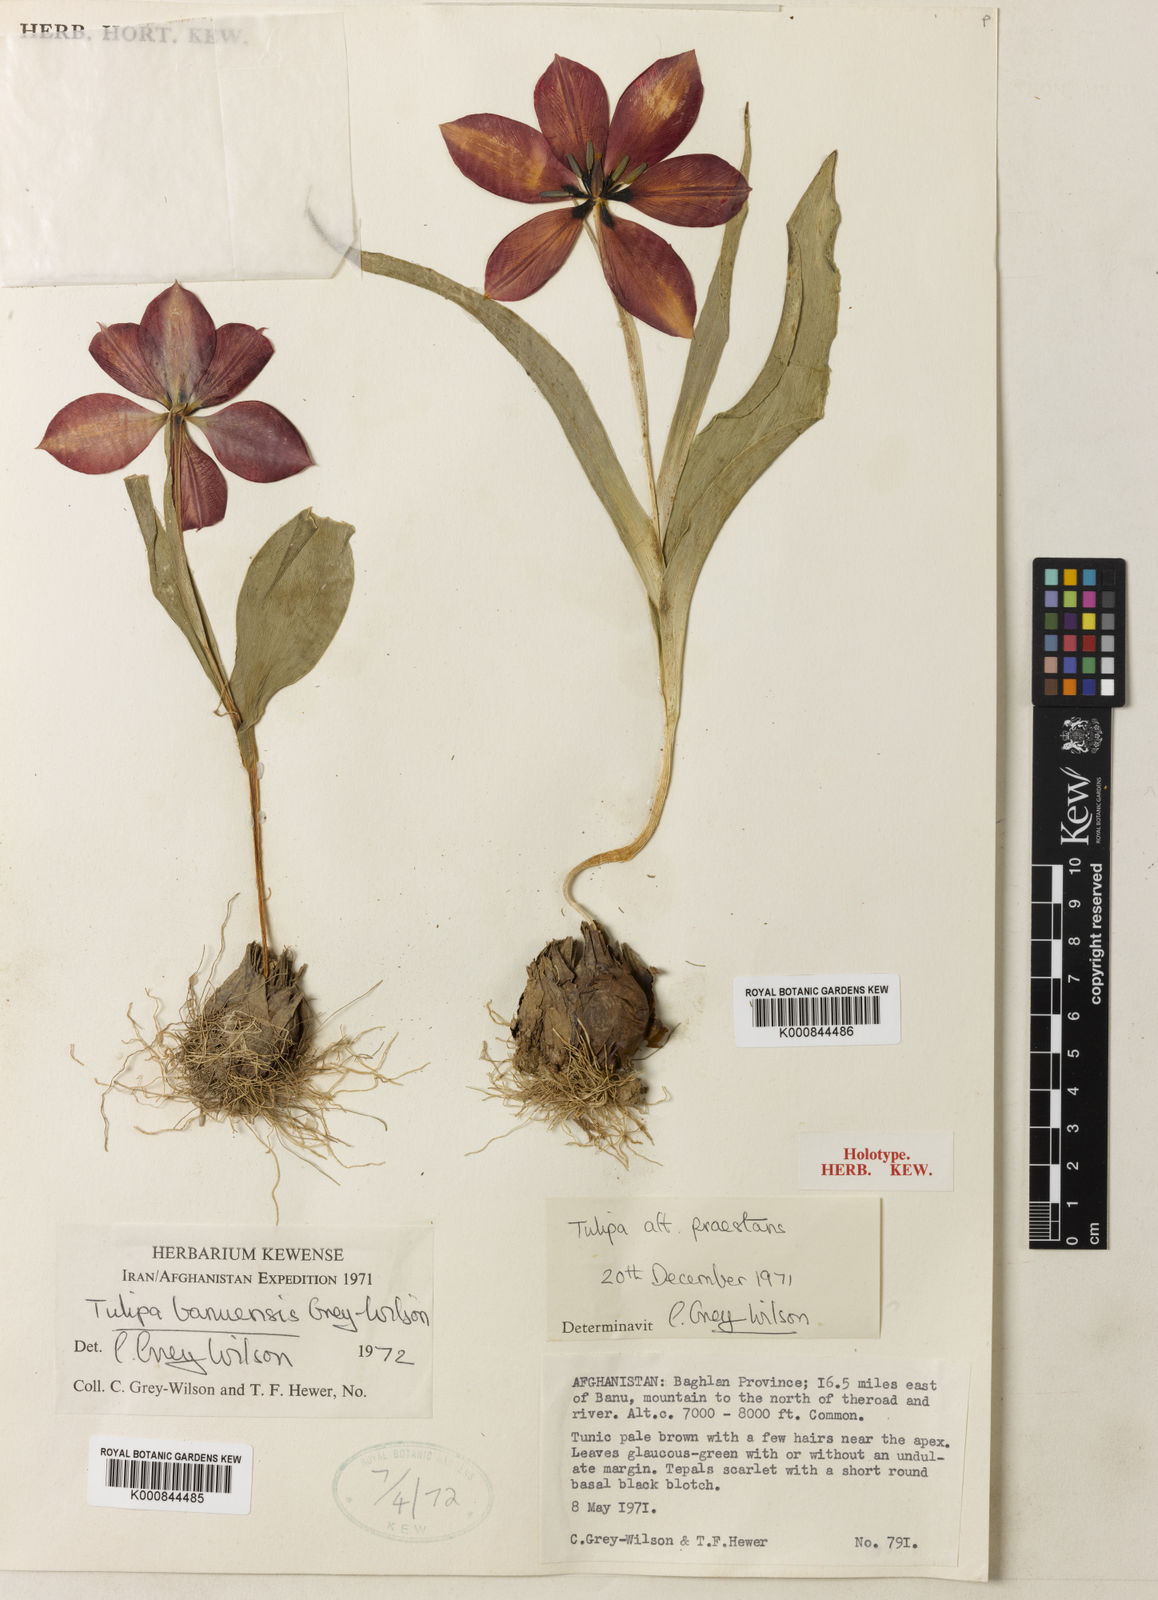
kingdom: Plantae
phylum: Tracheophyta
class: Liliopsida
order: Liliales
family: Liliaceae
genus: Tulipa
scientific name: Tulipa banuensis
